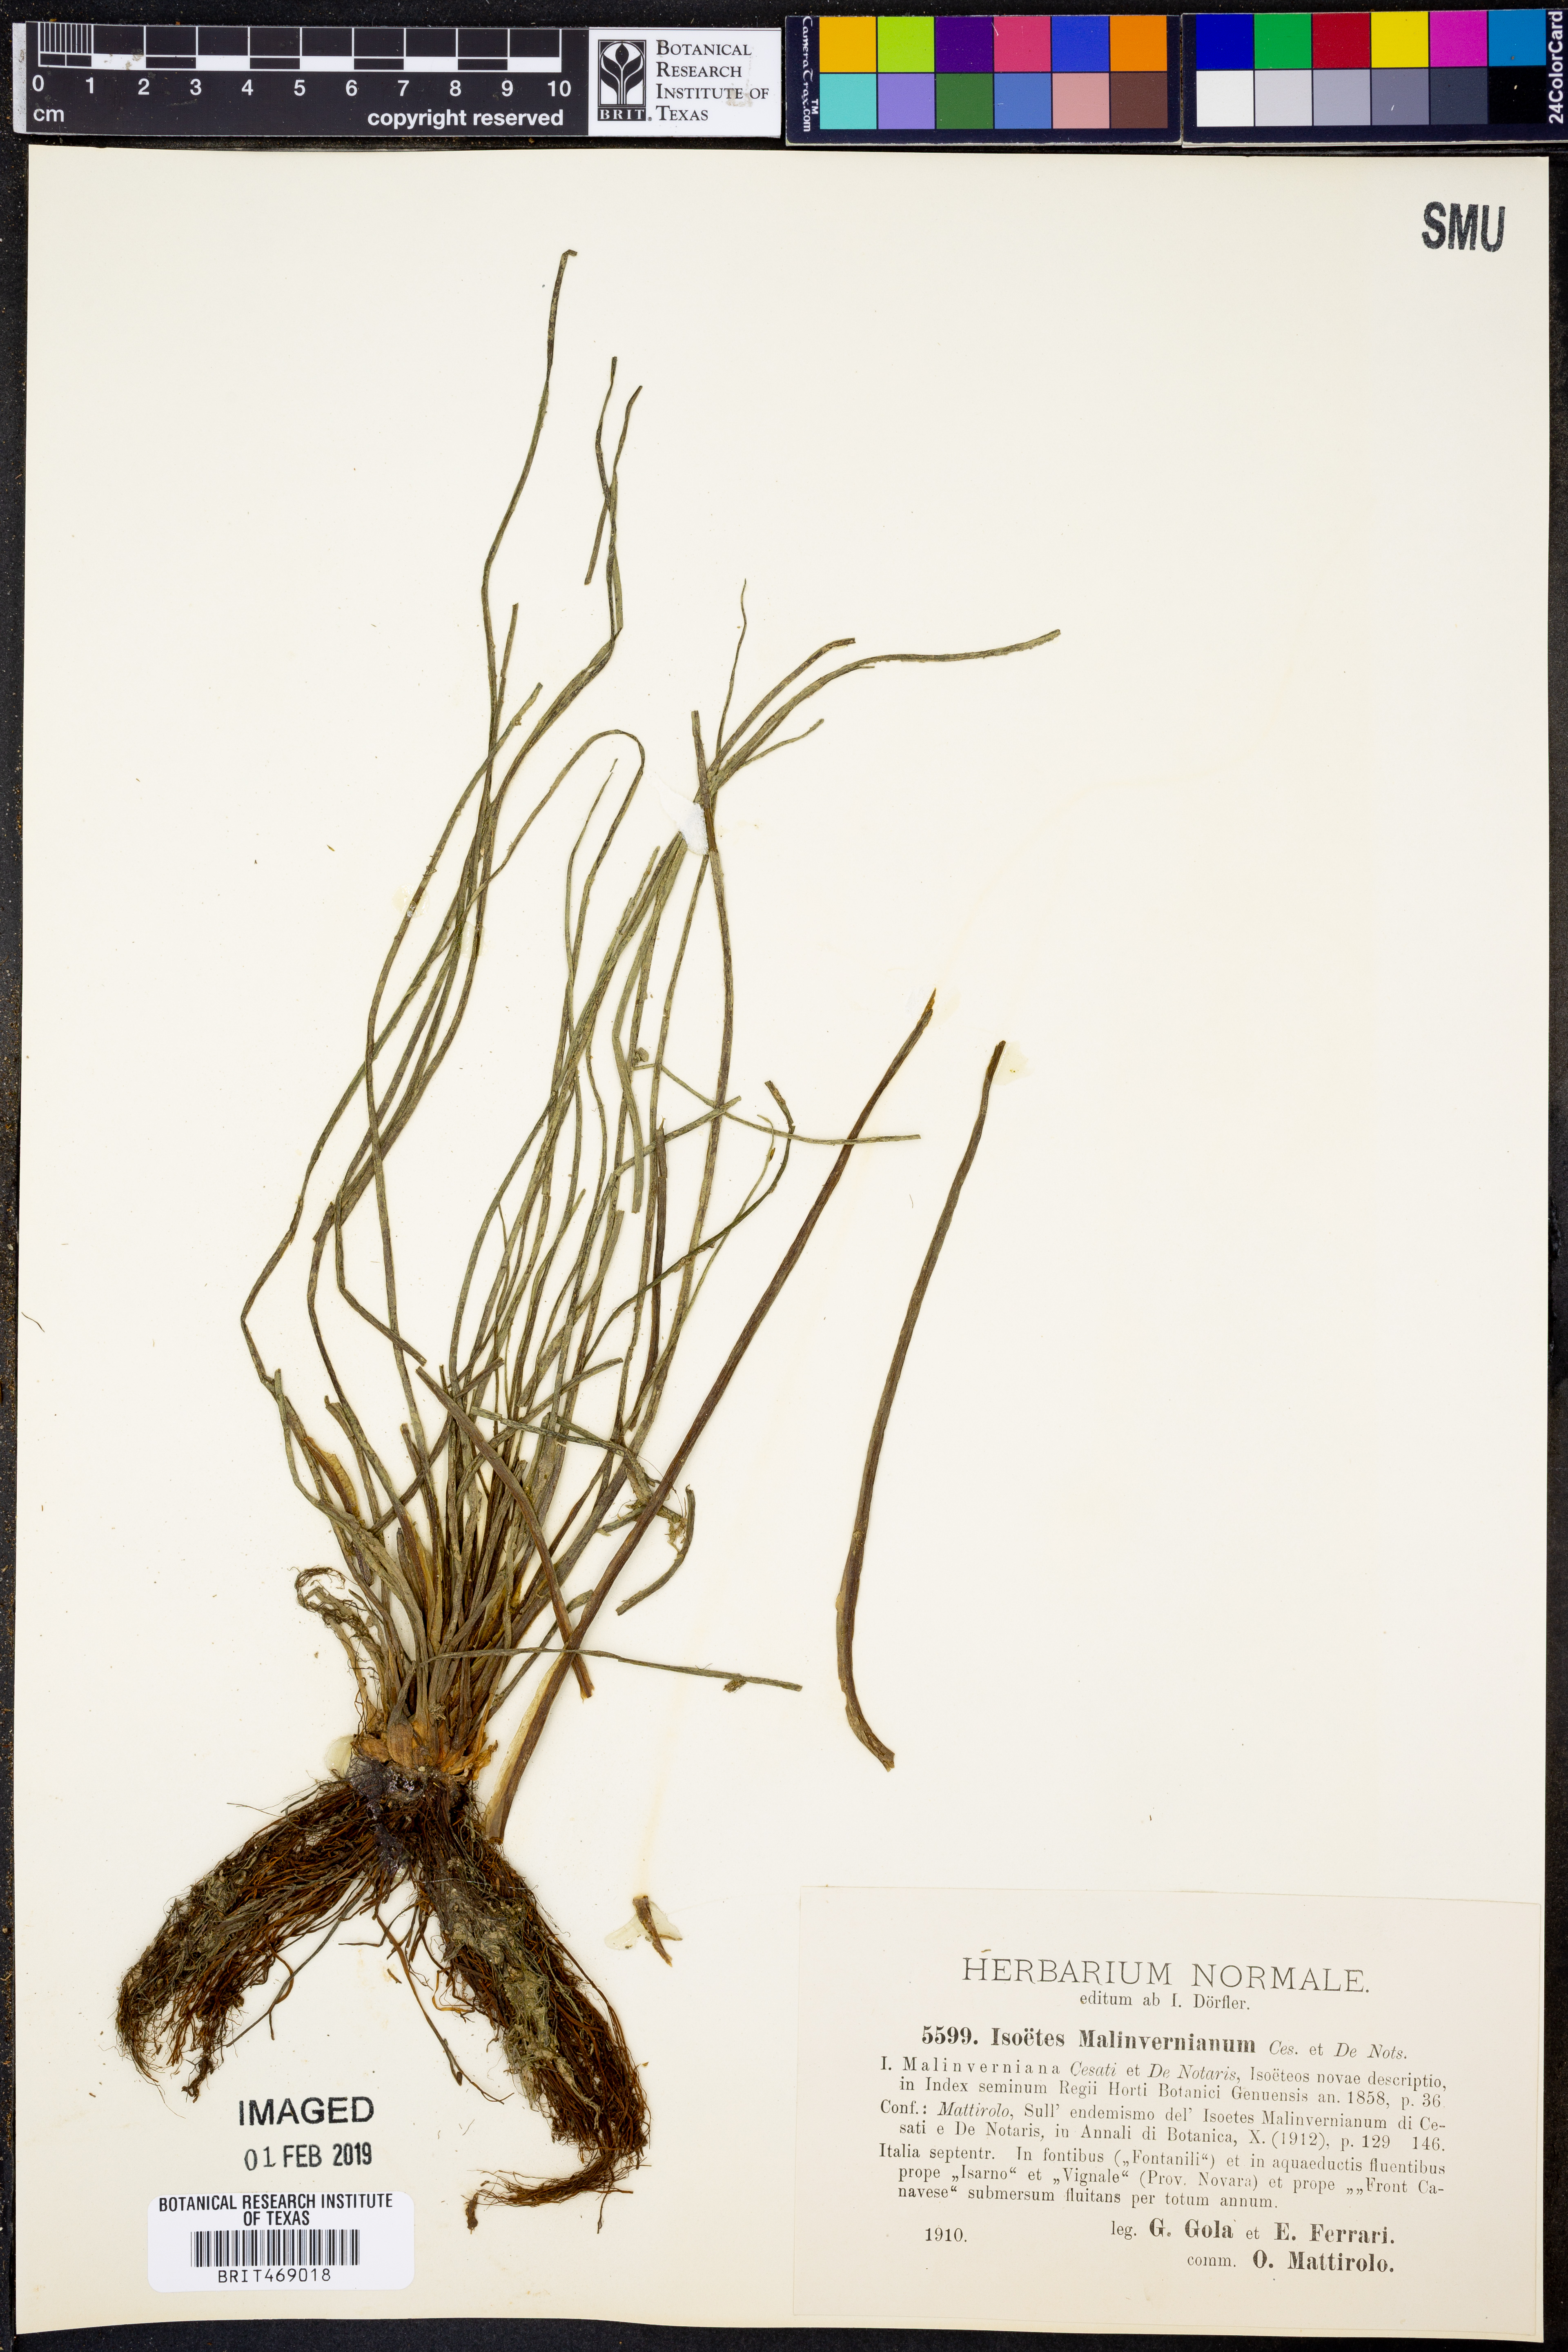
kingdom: Plantae
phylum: Tracheophyta
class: Lycopodiopsida
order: Isoetales
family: Isoetaceae
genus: Isoetes
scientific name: Isoetes malinverniana
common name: Piedmont quillwort
